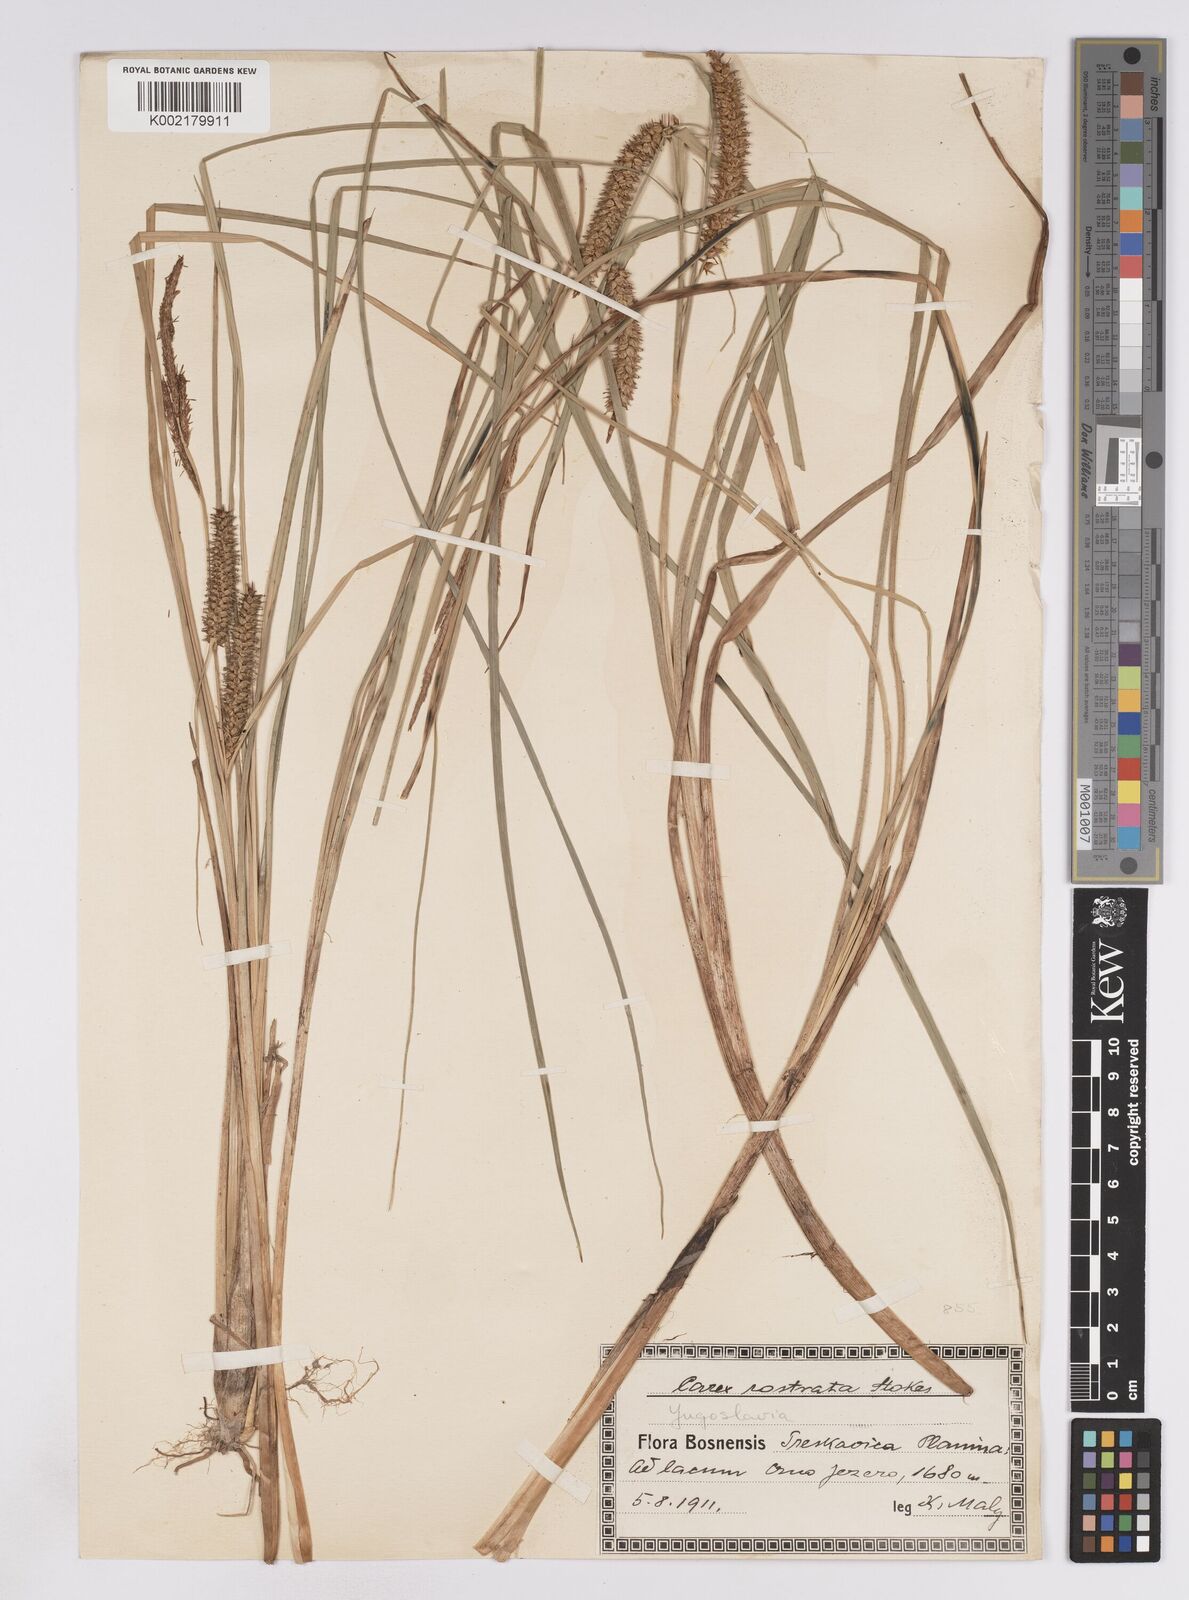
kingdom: Plantae
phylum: Tracheophyta
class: Liliopsida
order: Poales
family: Cyperaceae
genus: Carex
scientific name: Carex rostrata
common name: Bottle sedge
